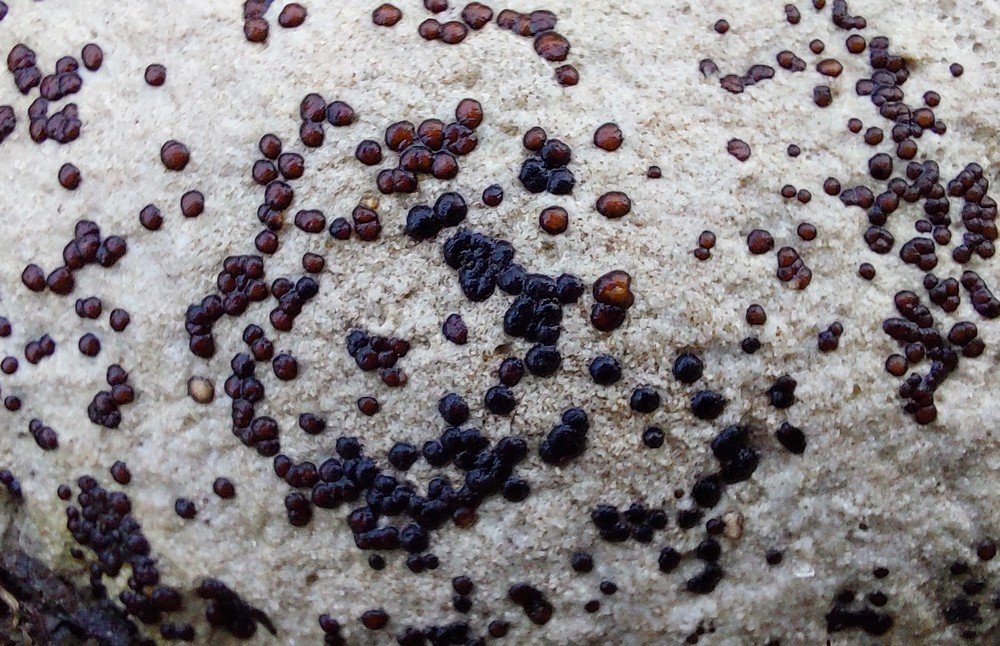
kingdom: Fungi
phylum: Ascomycota
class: Lecanoromycetes
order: Acarosporales
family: Acarosporaceae
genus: Sarcogyne
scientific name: Sarcogyne regularis
